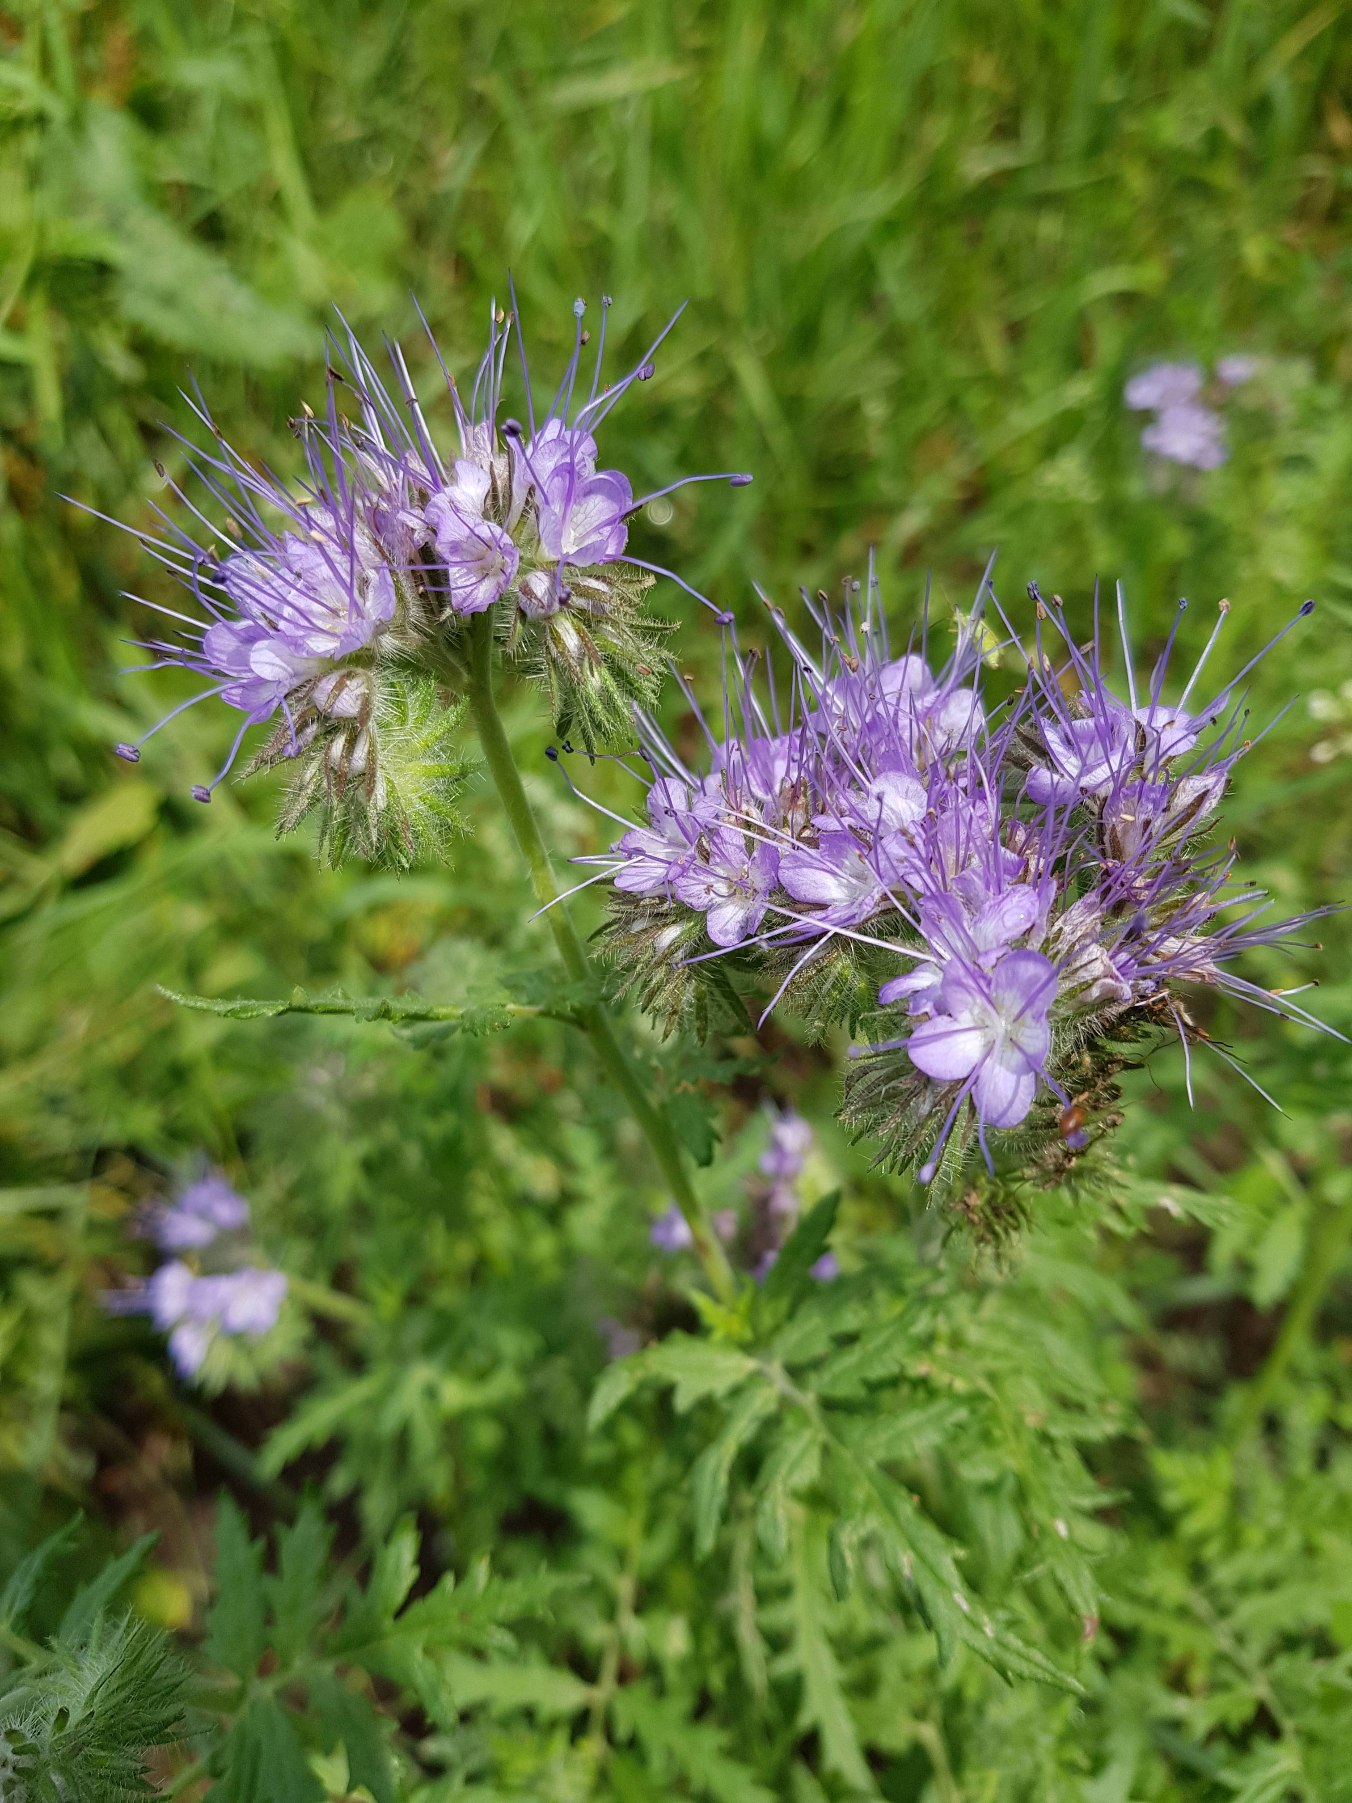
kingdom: Plantae
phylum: Tracheophyta
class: Magnoliopsida
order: Boraginales
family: Hydrophyllaceae
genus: Phacelia
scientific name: Phacelia tanacetifolia
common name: Honningurt
